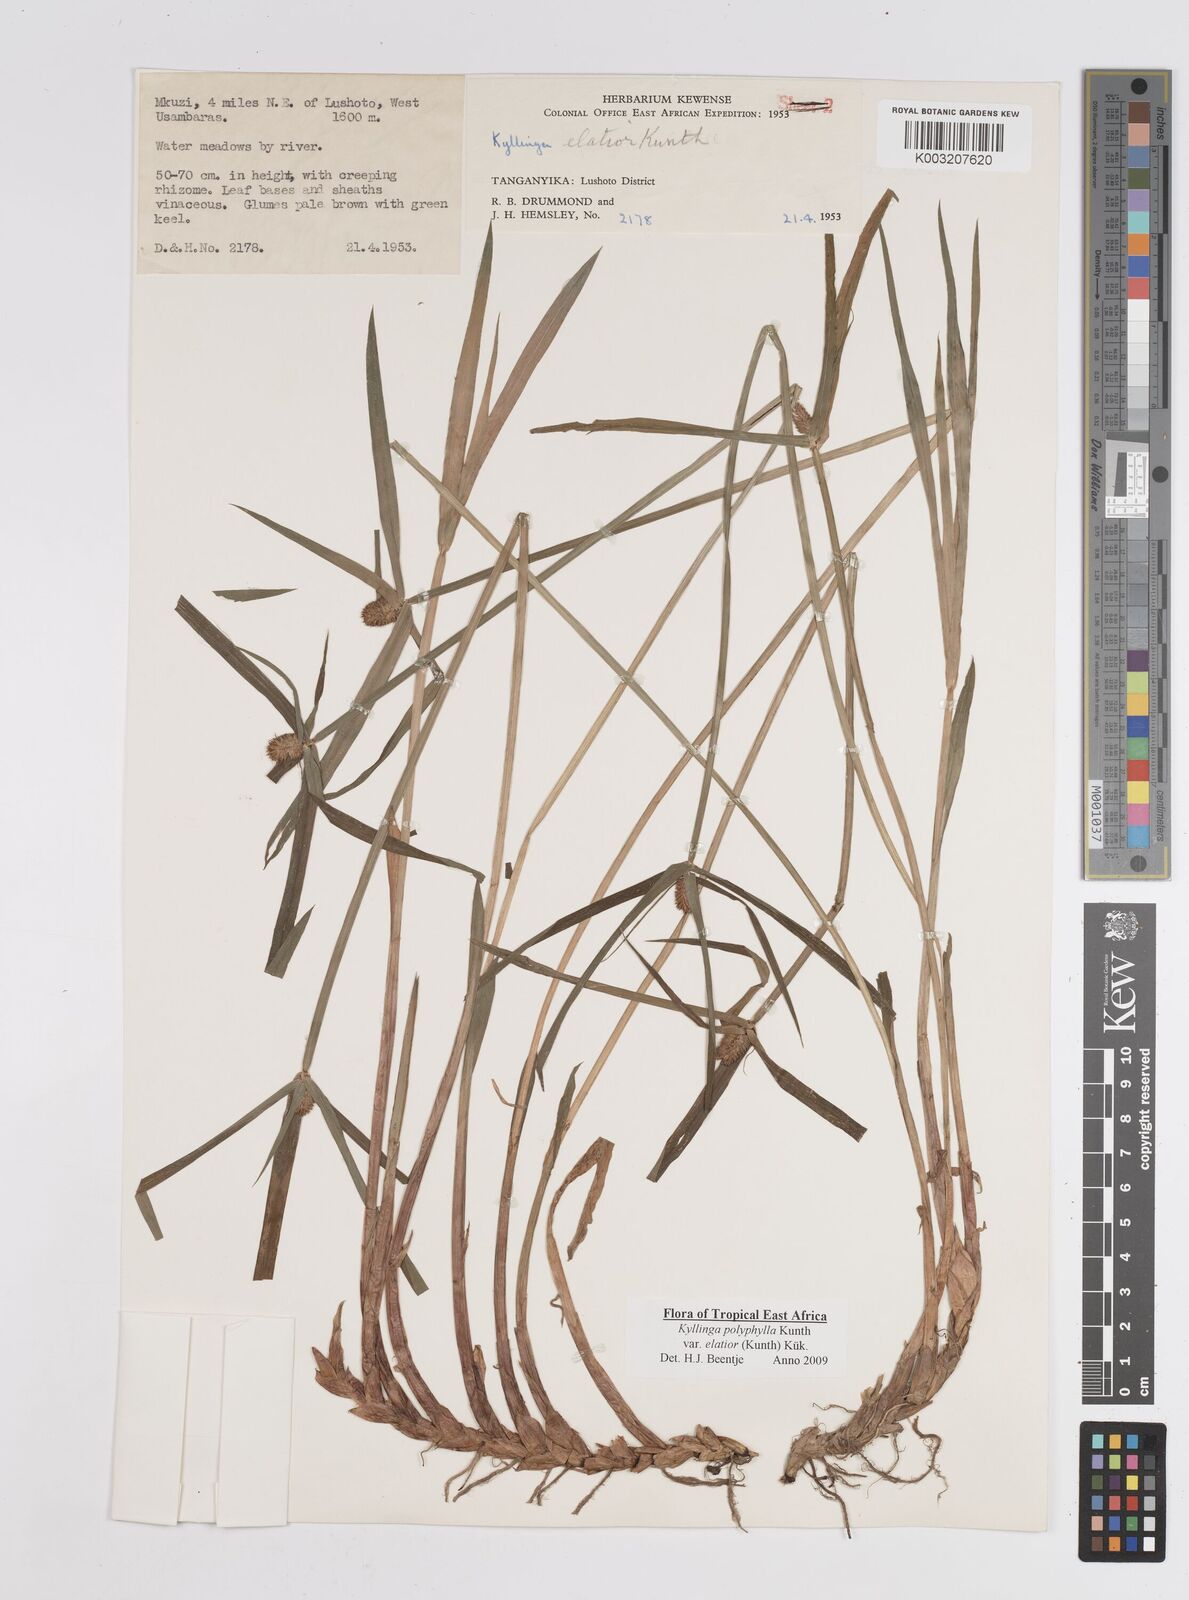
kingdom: Plantae
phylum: Tracheophyta
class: Liliopsida
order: Poales
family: Cyperaceae
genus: Cyperus
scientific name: Cyperus
